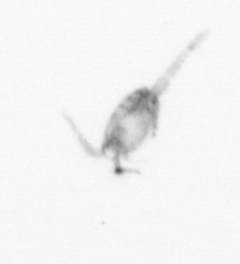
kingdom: Animalia
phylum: Arthropoda
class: Copepoda
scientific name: Copepoda
